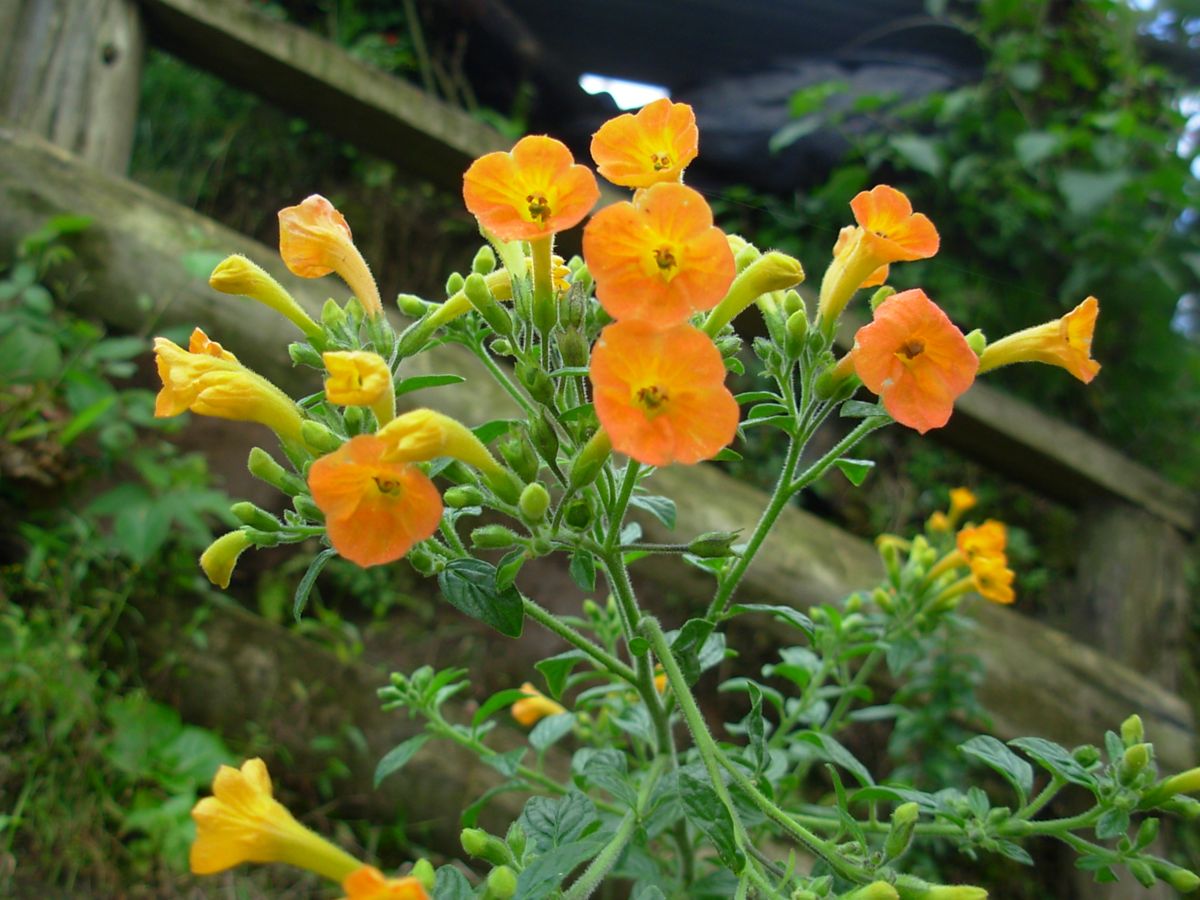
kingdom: Plantae
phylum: Tracheophyta
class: Magnoliopsida
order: Solanales
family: Solanaceae
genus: Streptosolen
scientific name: Streptosolen jamesonii
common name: Marmalade bush
